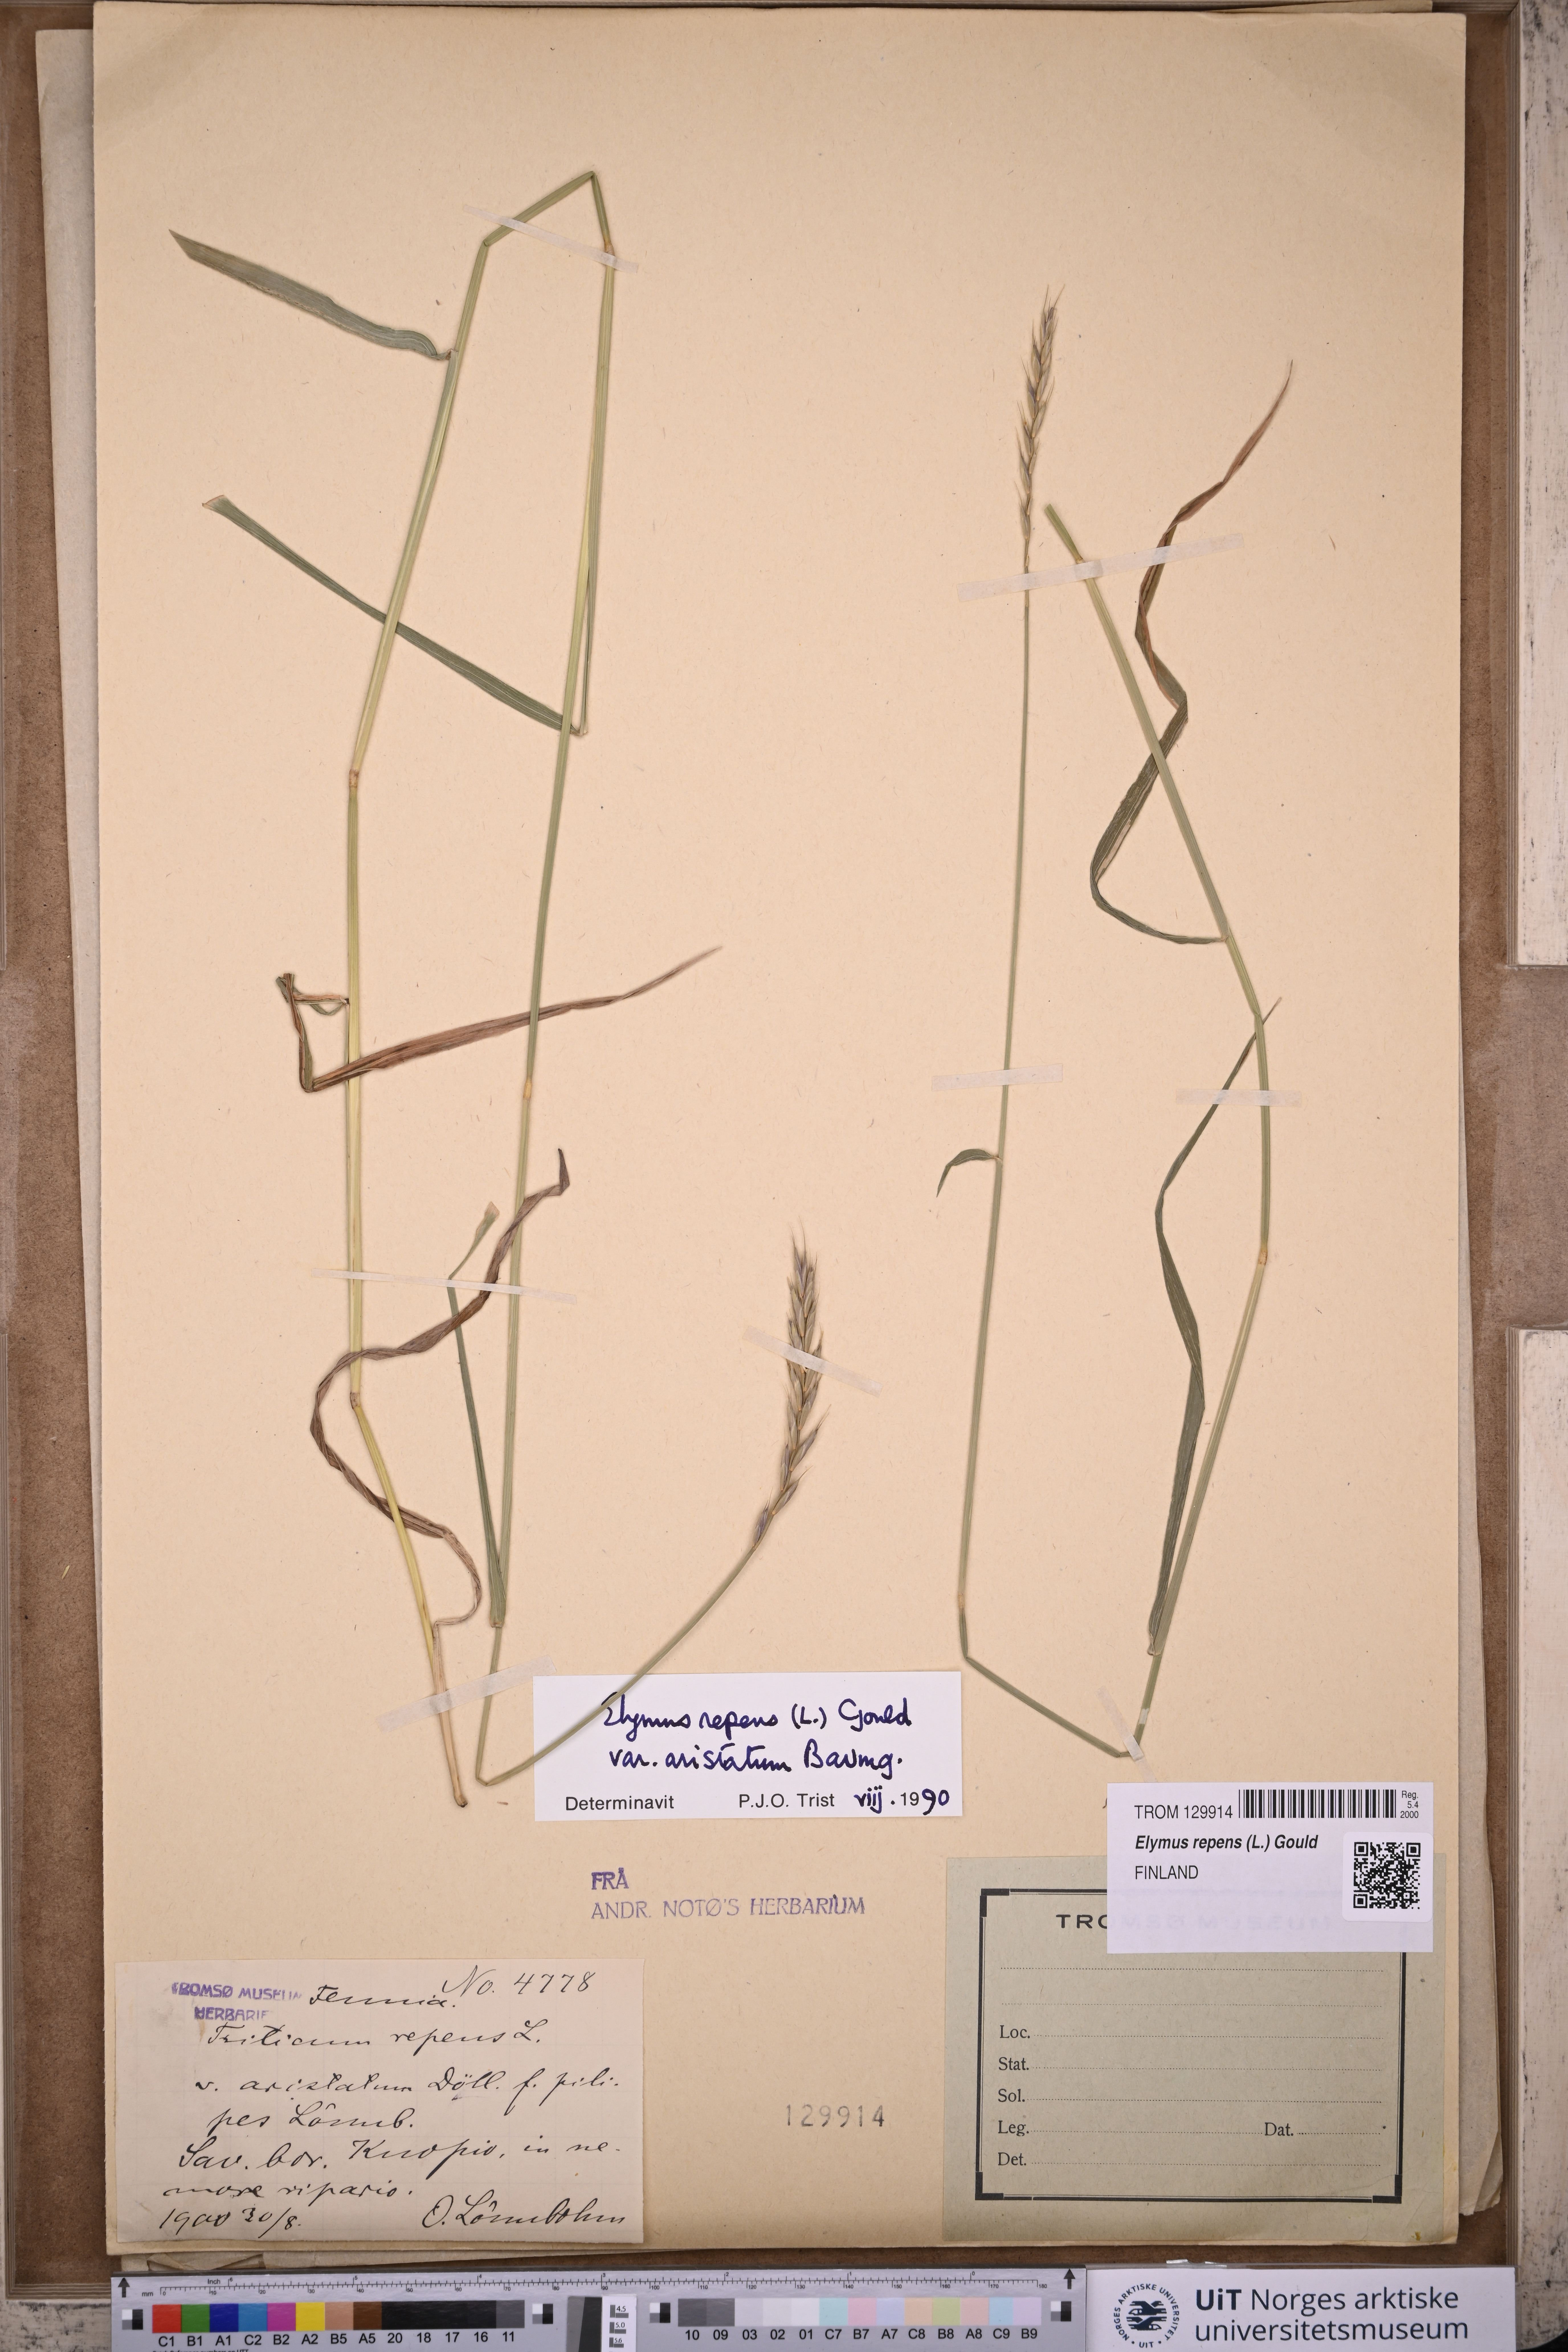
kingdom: Plantae
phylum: Tracheophyta
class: Liliopsida
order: Poales
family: Poaceae
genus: Elymus
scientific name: Elymus repens
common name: Quackgrass
